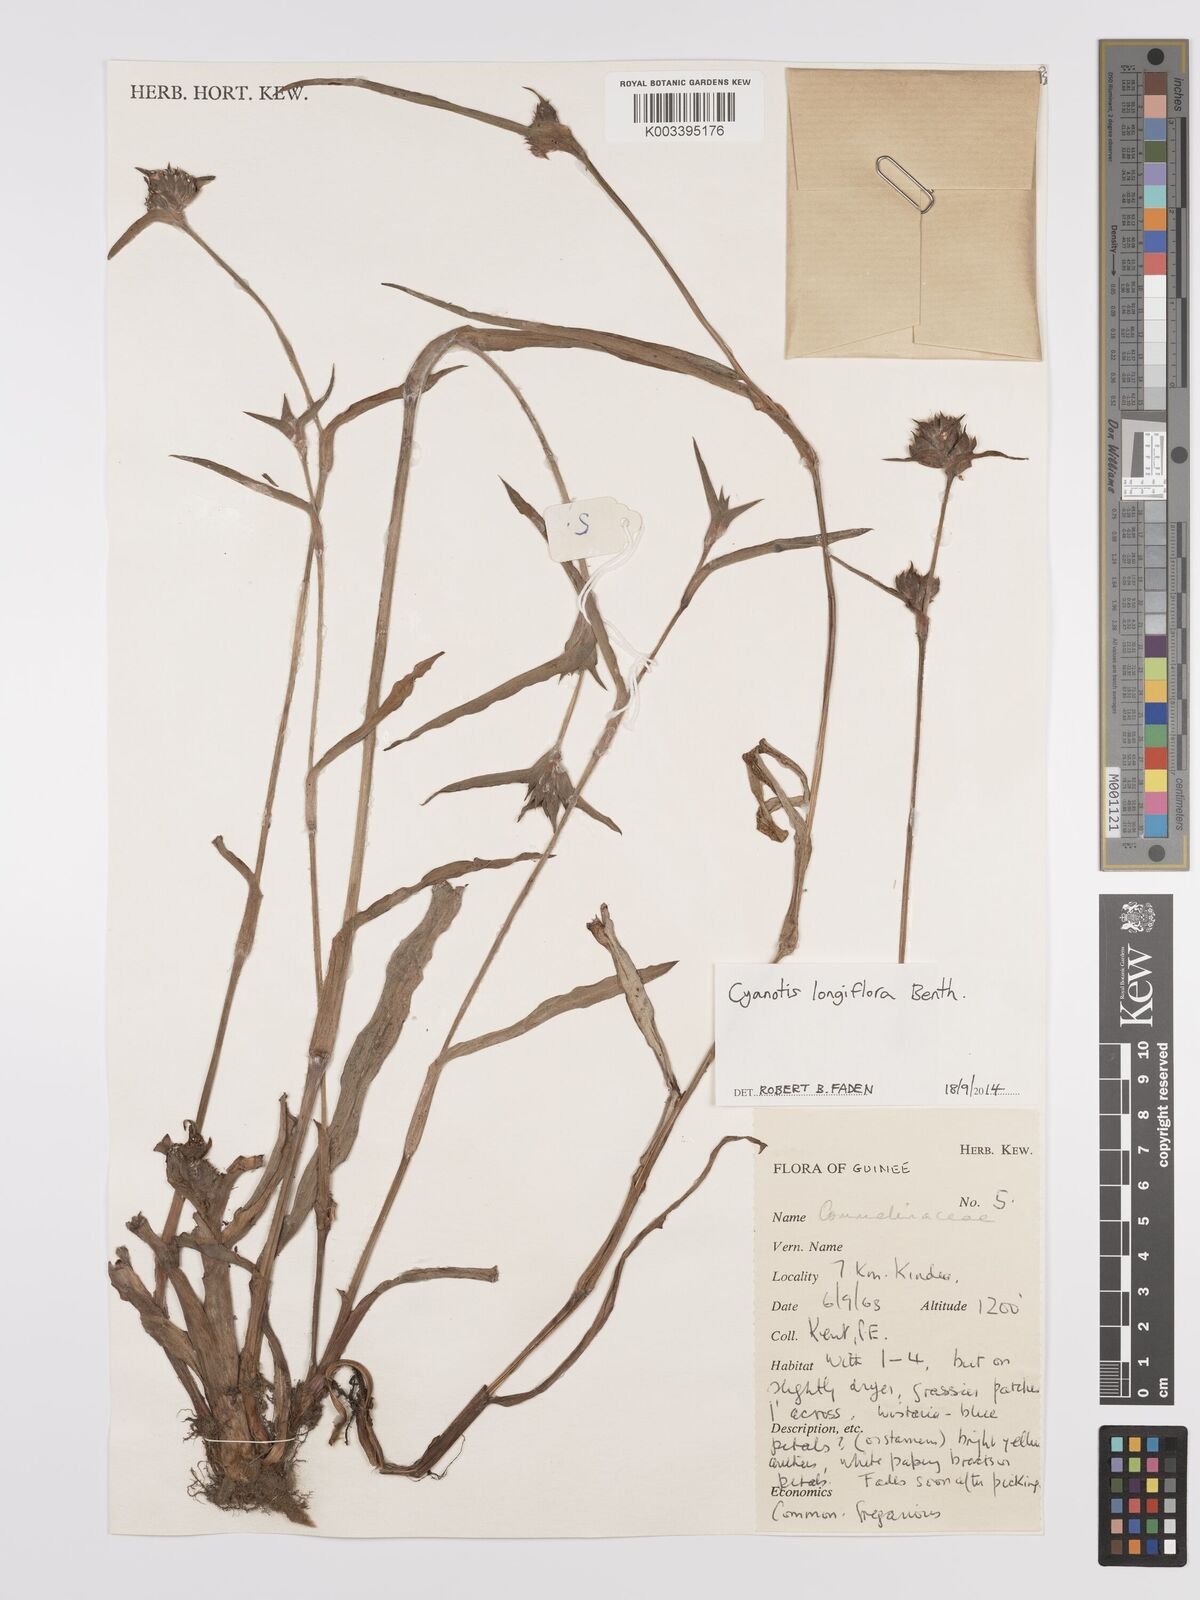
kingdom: Plantae
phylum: Tracheophyta
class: Liliopsida
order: Commelinales
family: Commelinaceae
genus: Cyanotis
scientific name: Cyanotis
